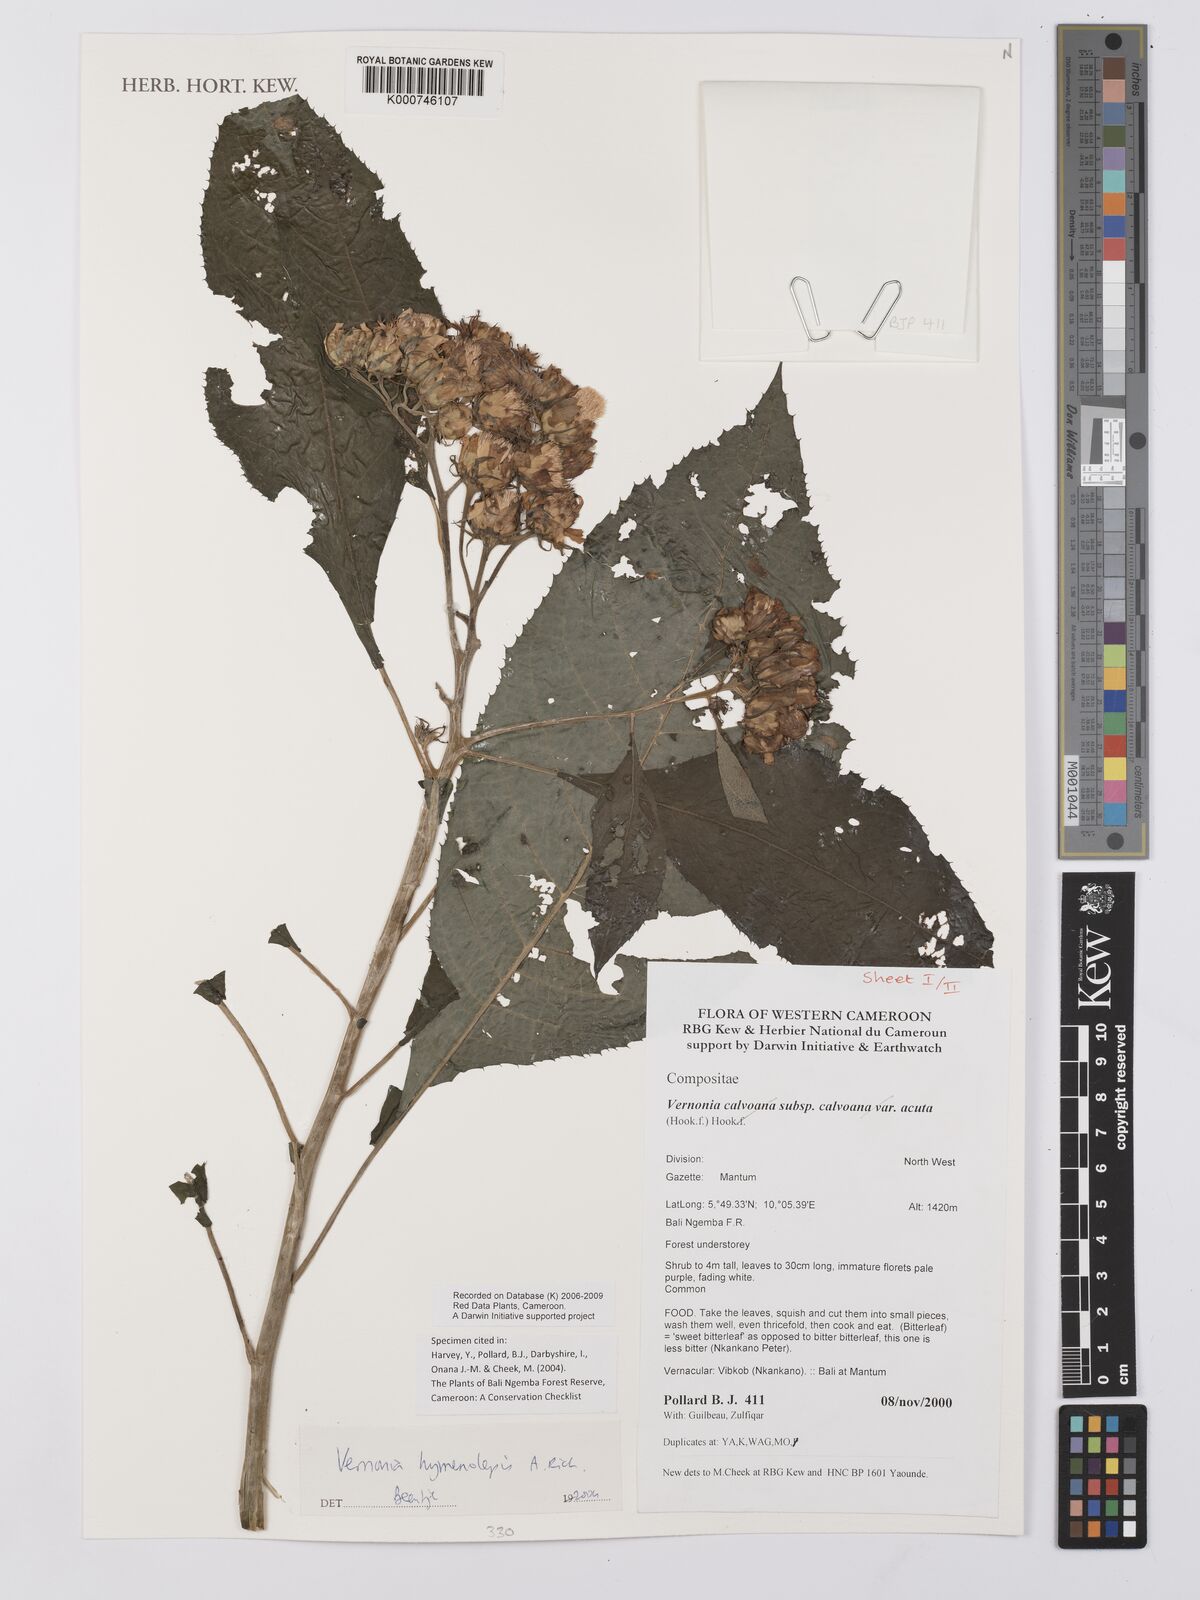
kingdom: Plantae
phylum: Tracheophyta
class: Magnoliopsida
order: Asterales
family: Asteraceae
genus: Baccharoides
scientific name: Baccharoides hymenolepis
